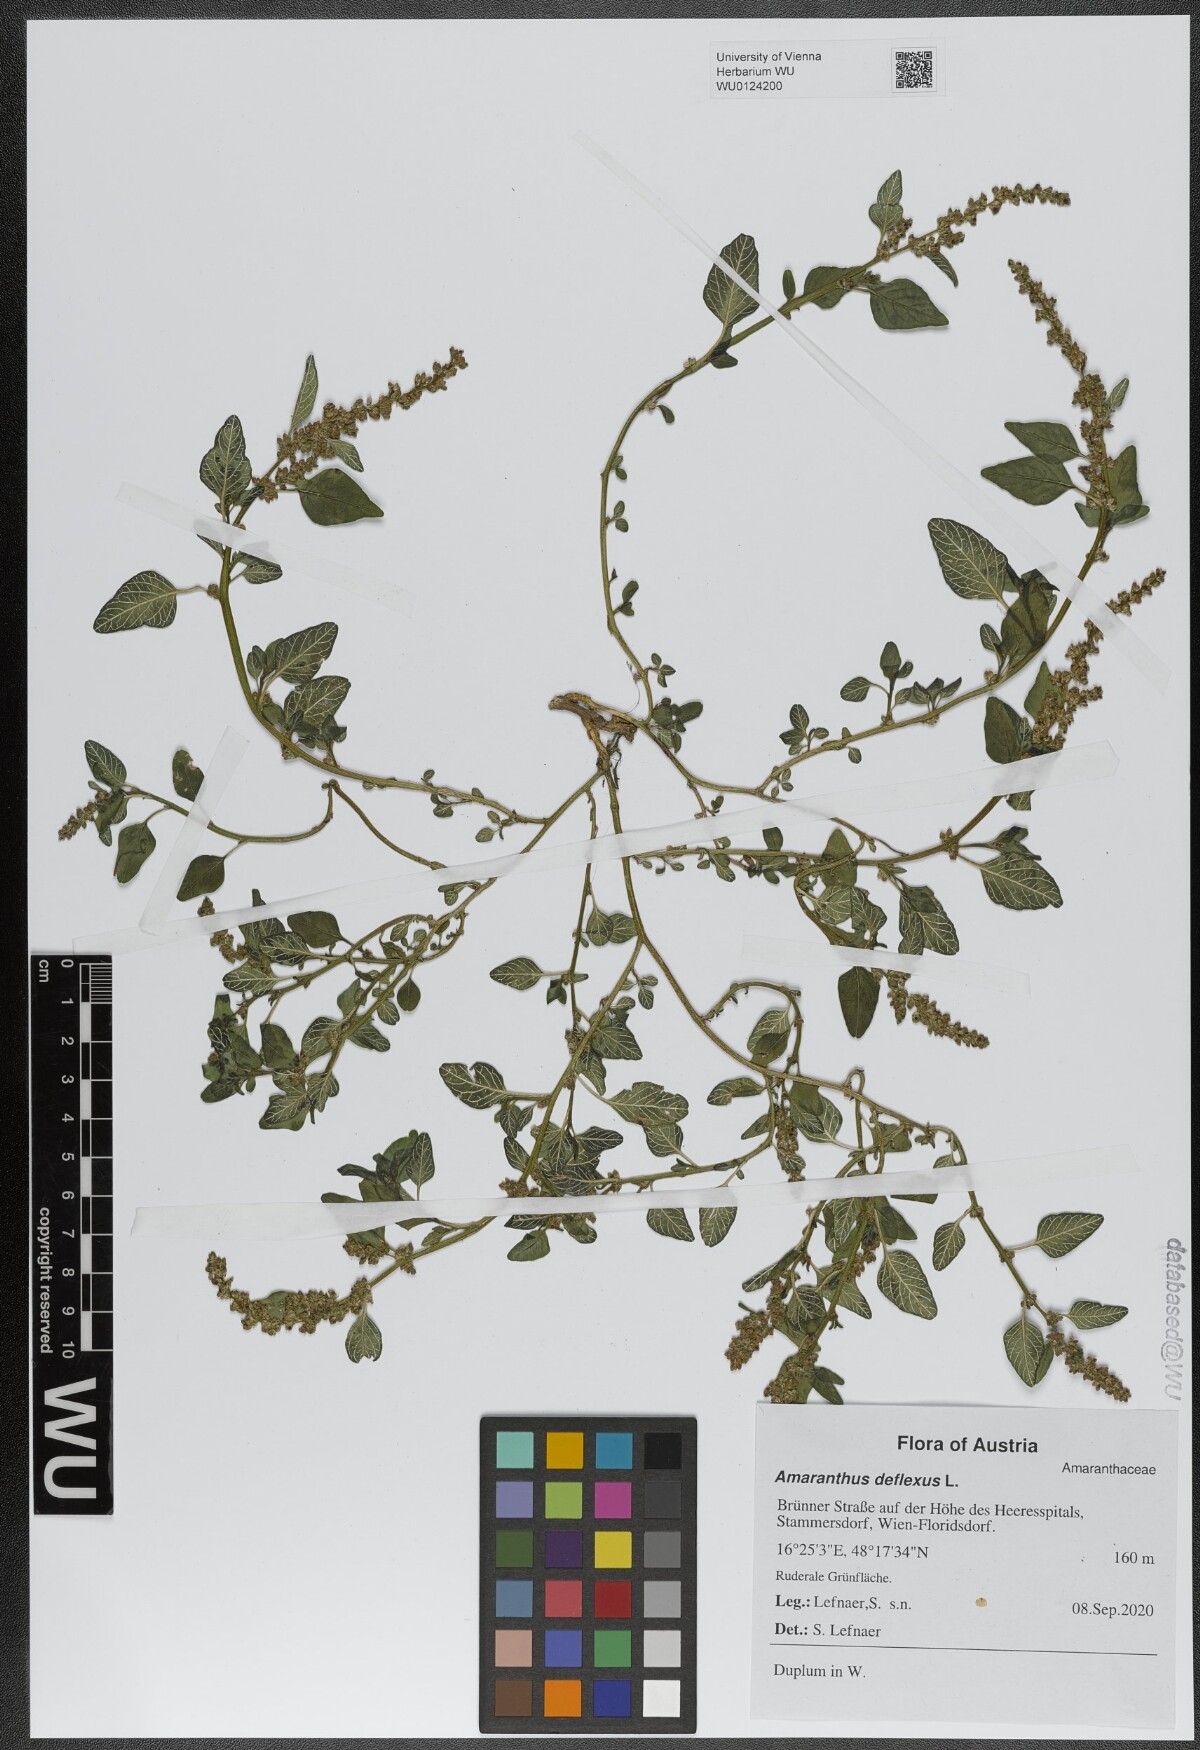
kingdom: Plantae
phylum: Tracheophyta
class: Magnoliopsida
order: Caryophyllales
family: Amaranthaceae
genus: Amaranthus
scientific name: Amaranthus deflexus
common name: Perennial pigweed
